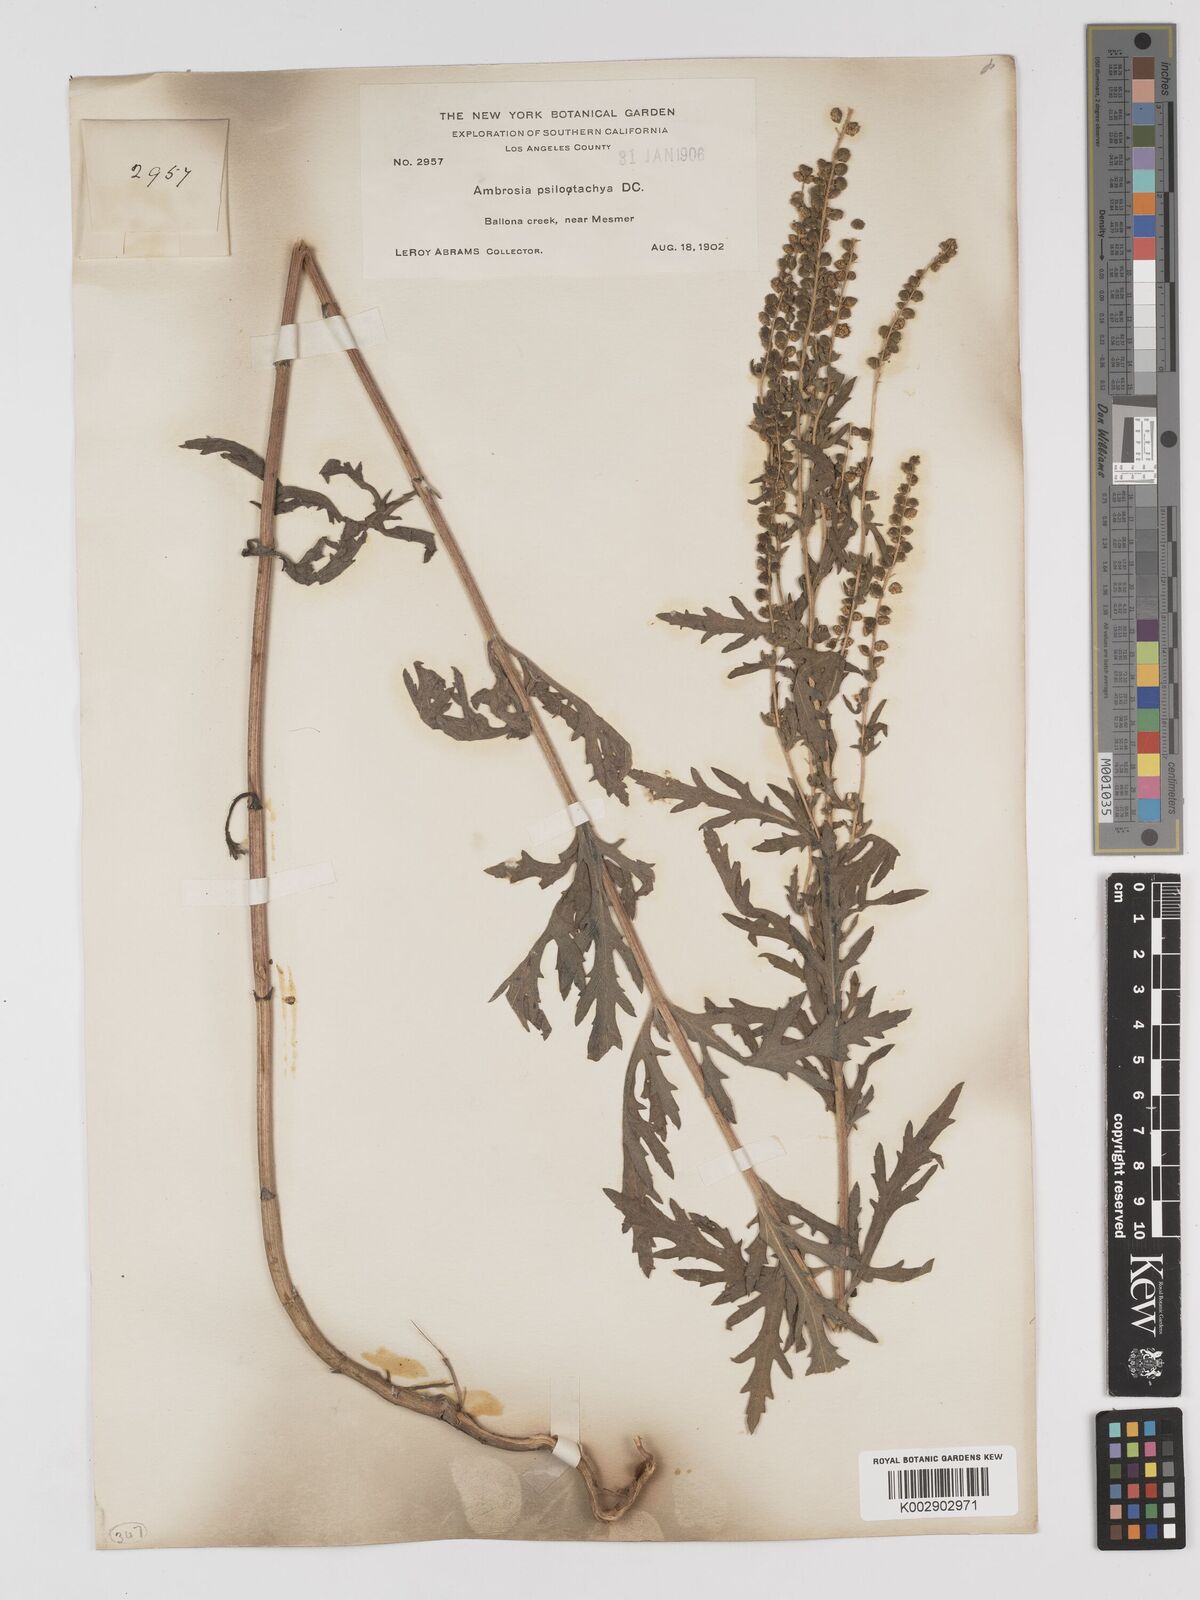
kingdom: Plantae
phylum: Tracheophyta
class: Magnoliopsida
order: Asterales
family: Asteraceae
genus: Ambrosia
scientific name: Ambrosia psilostachya
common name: Perennial ragweed
